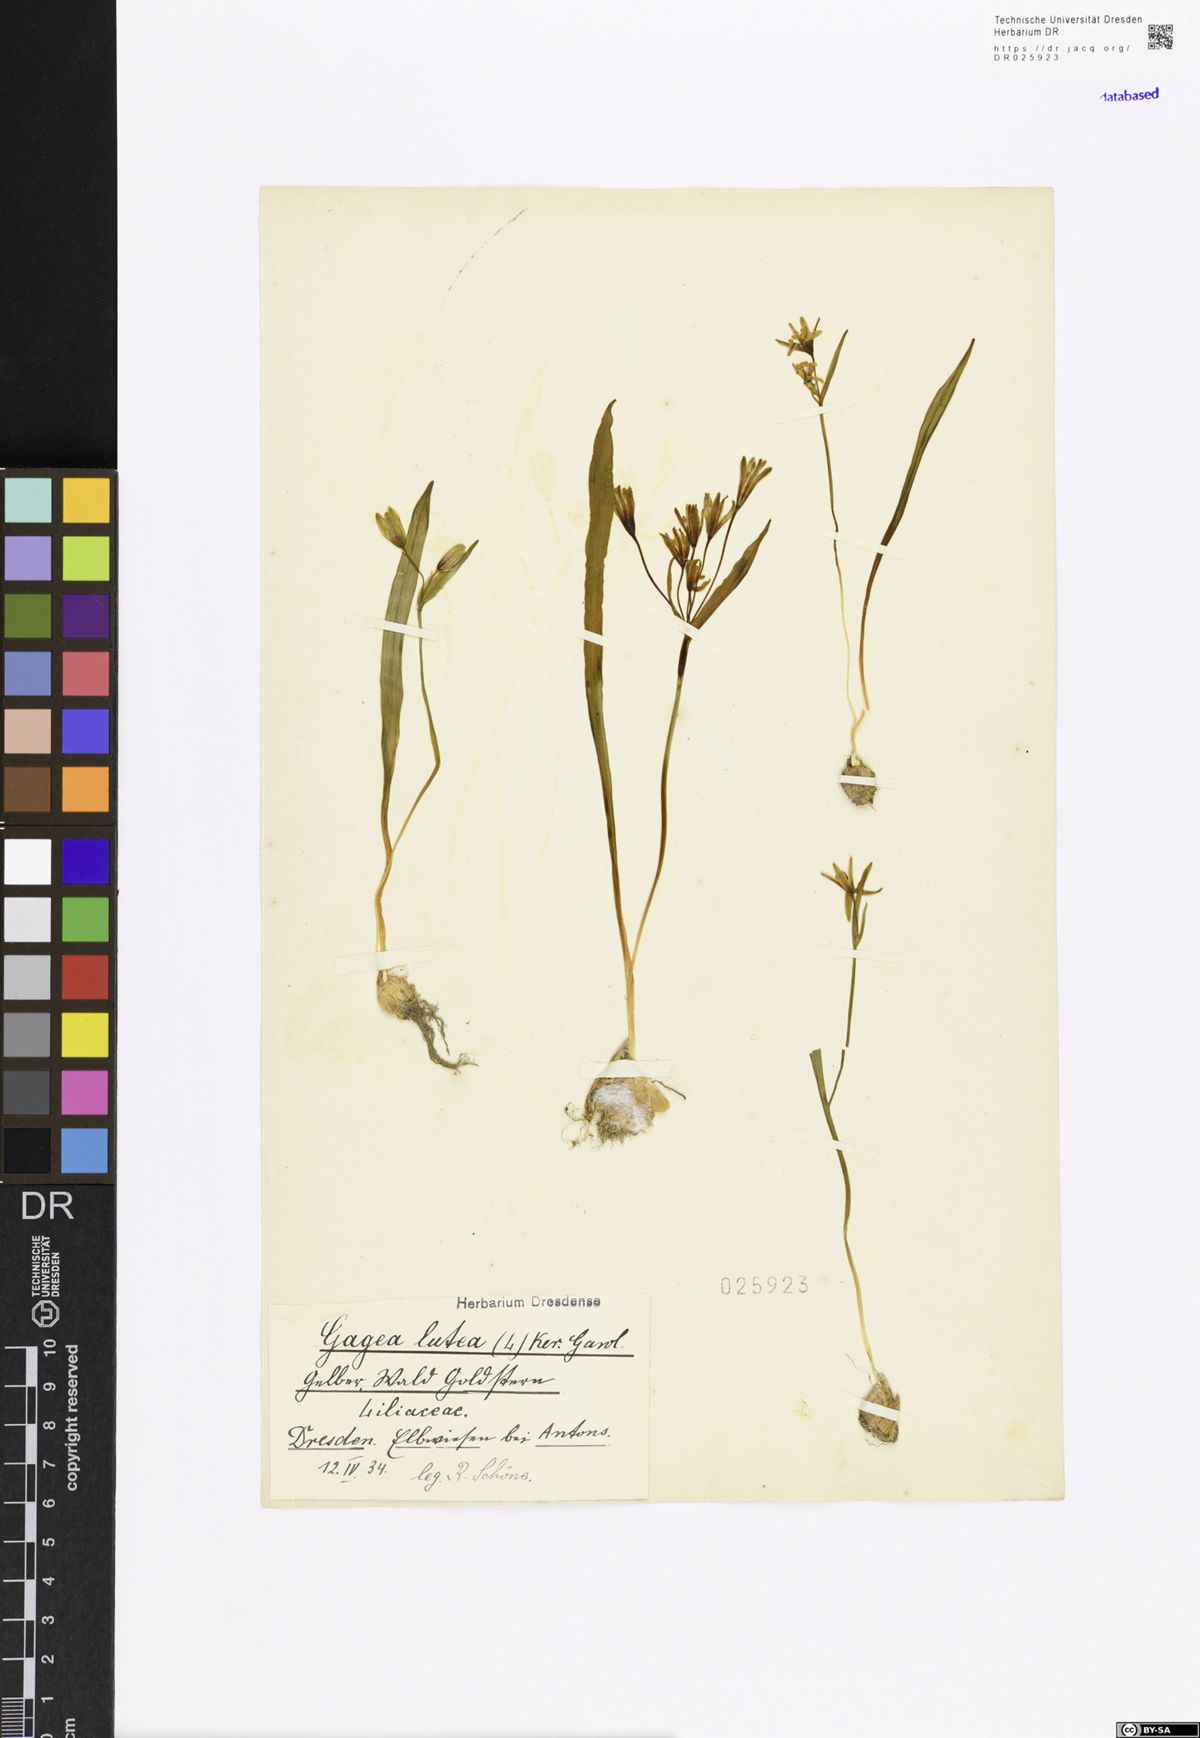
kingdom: Plantae
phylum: Tracheophyta
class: Liliopsida
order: Liliales
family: Liliaceae
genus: Gagea
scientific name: Gagea lutea
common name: Yellow star-of-bethlehem
